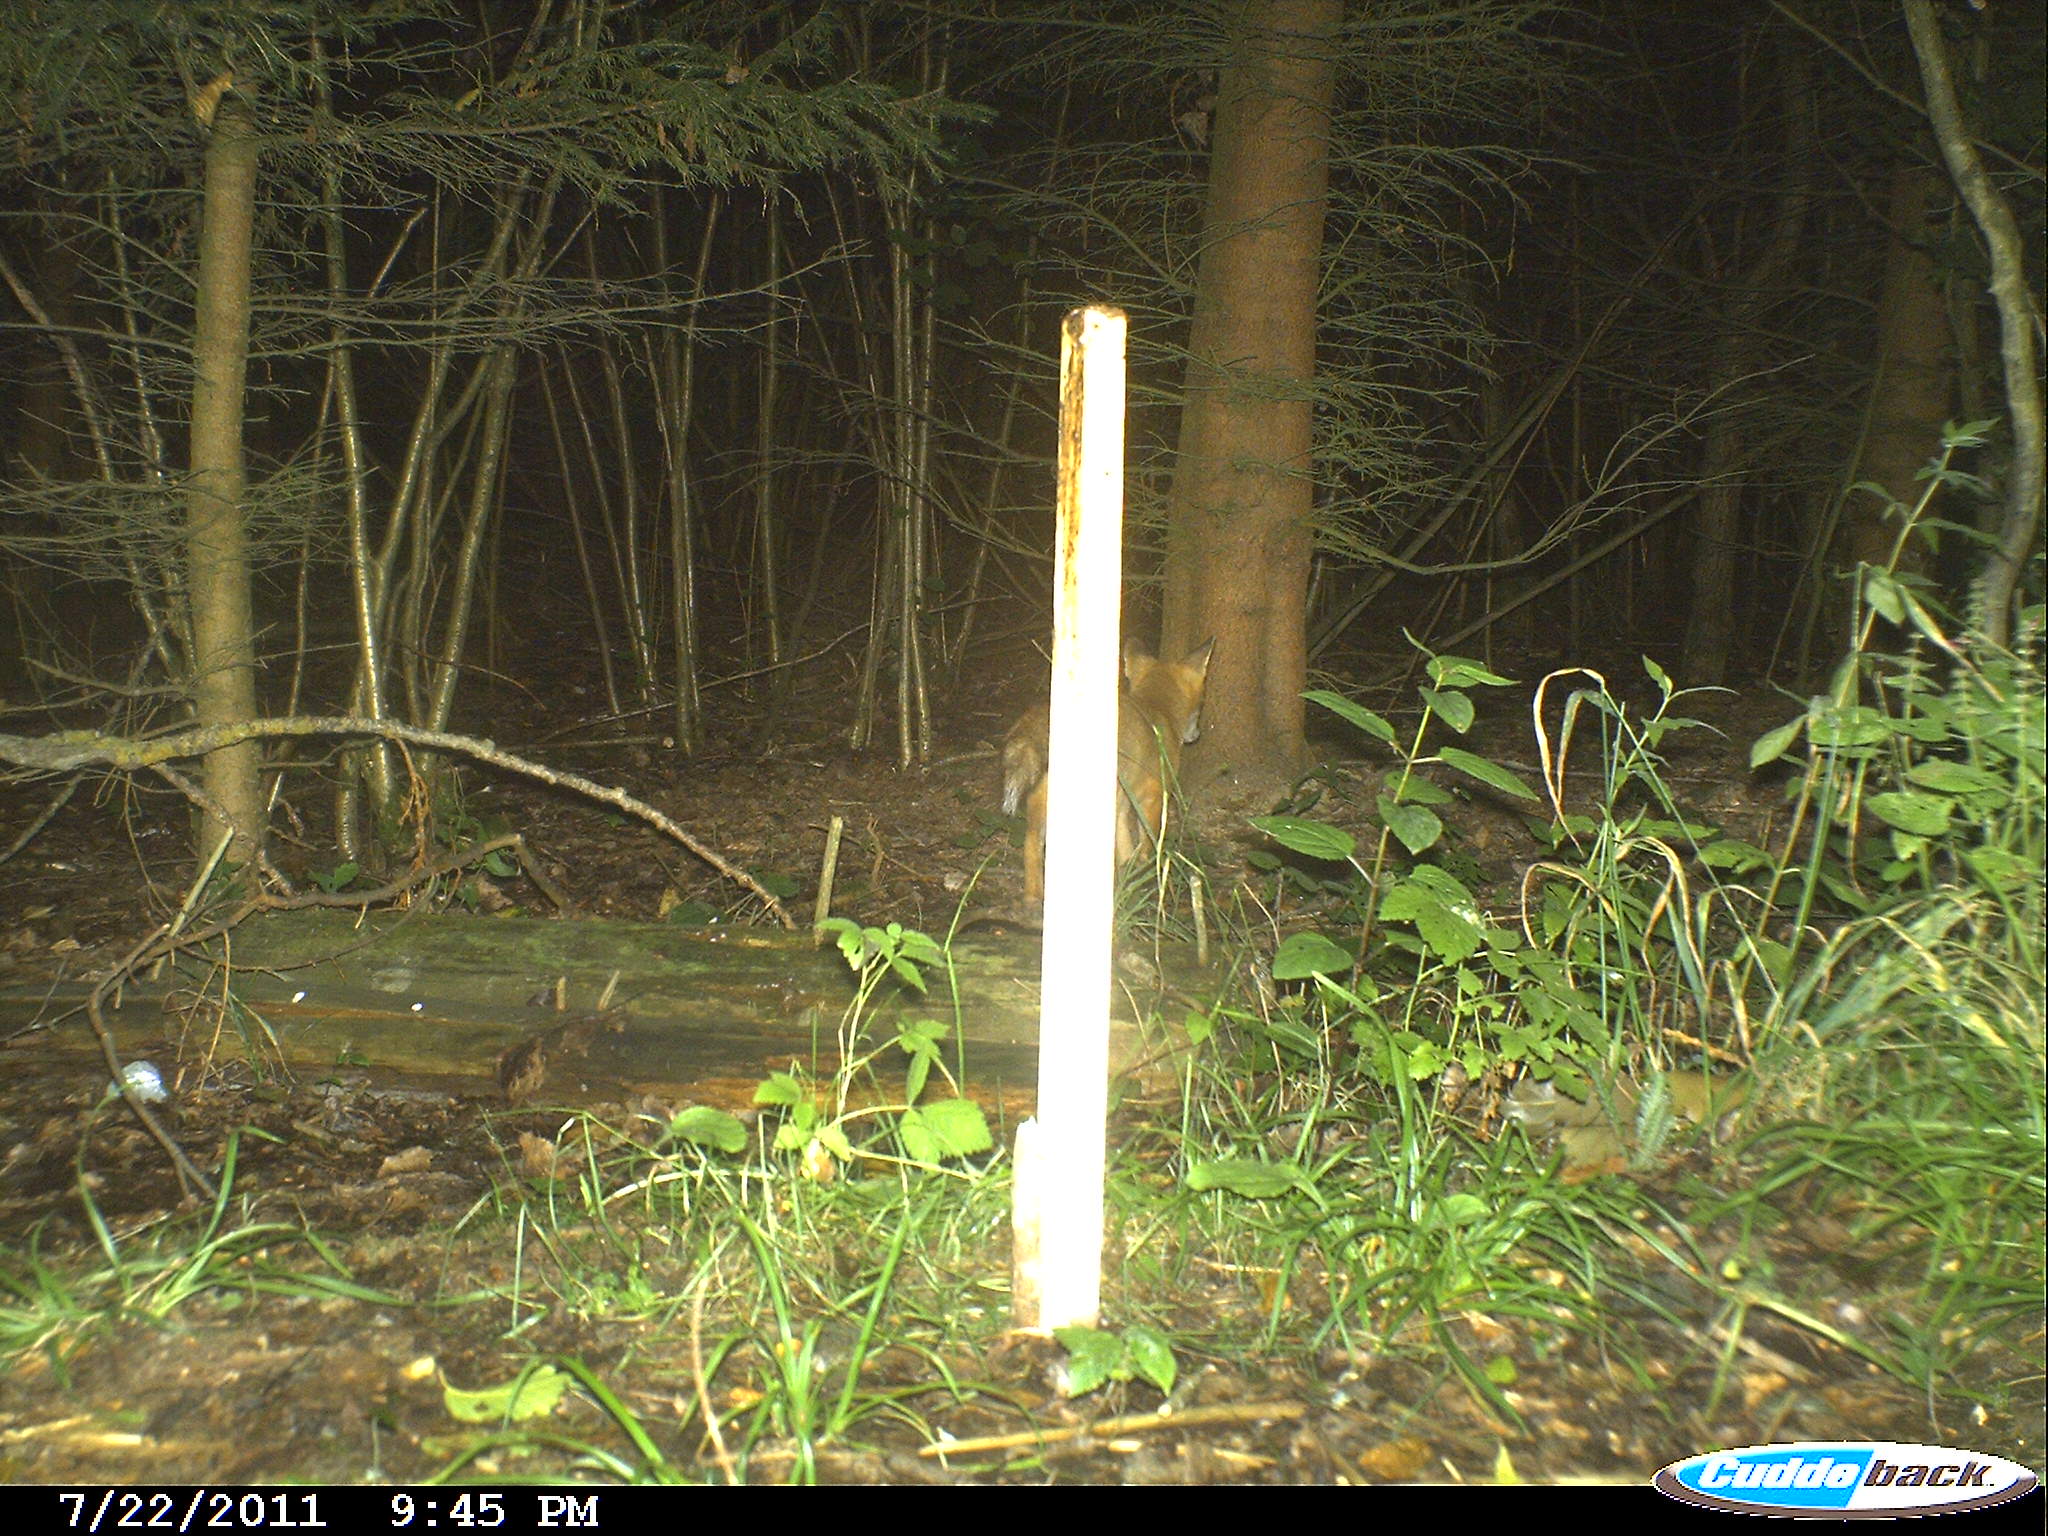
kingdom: Animalia
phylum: Chordata
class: Mammalia
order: Carnivora
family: Canidae
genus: Vulpes
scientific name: Vulpes vulpes
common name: Red fox
